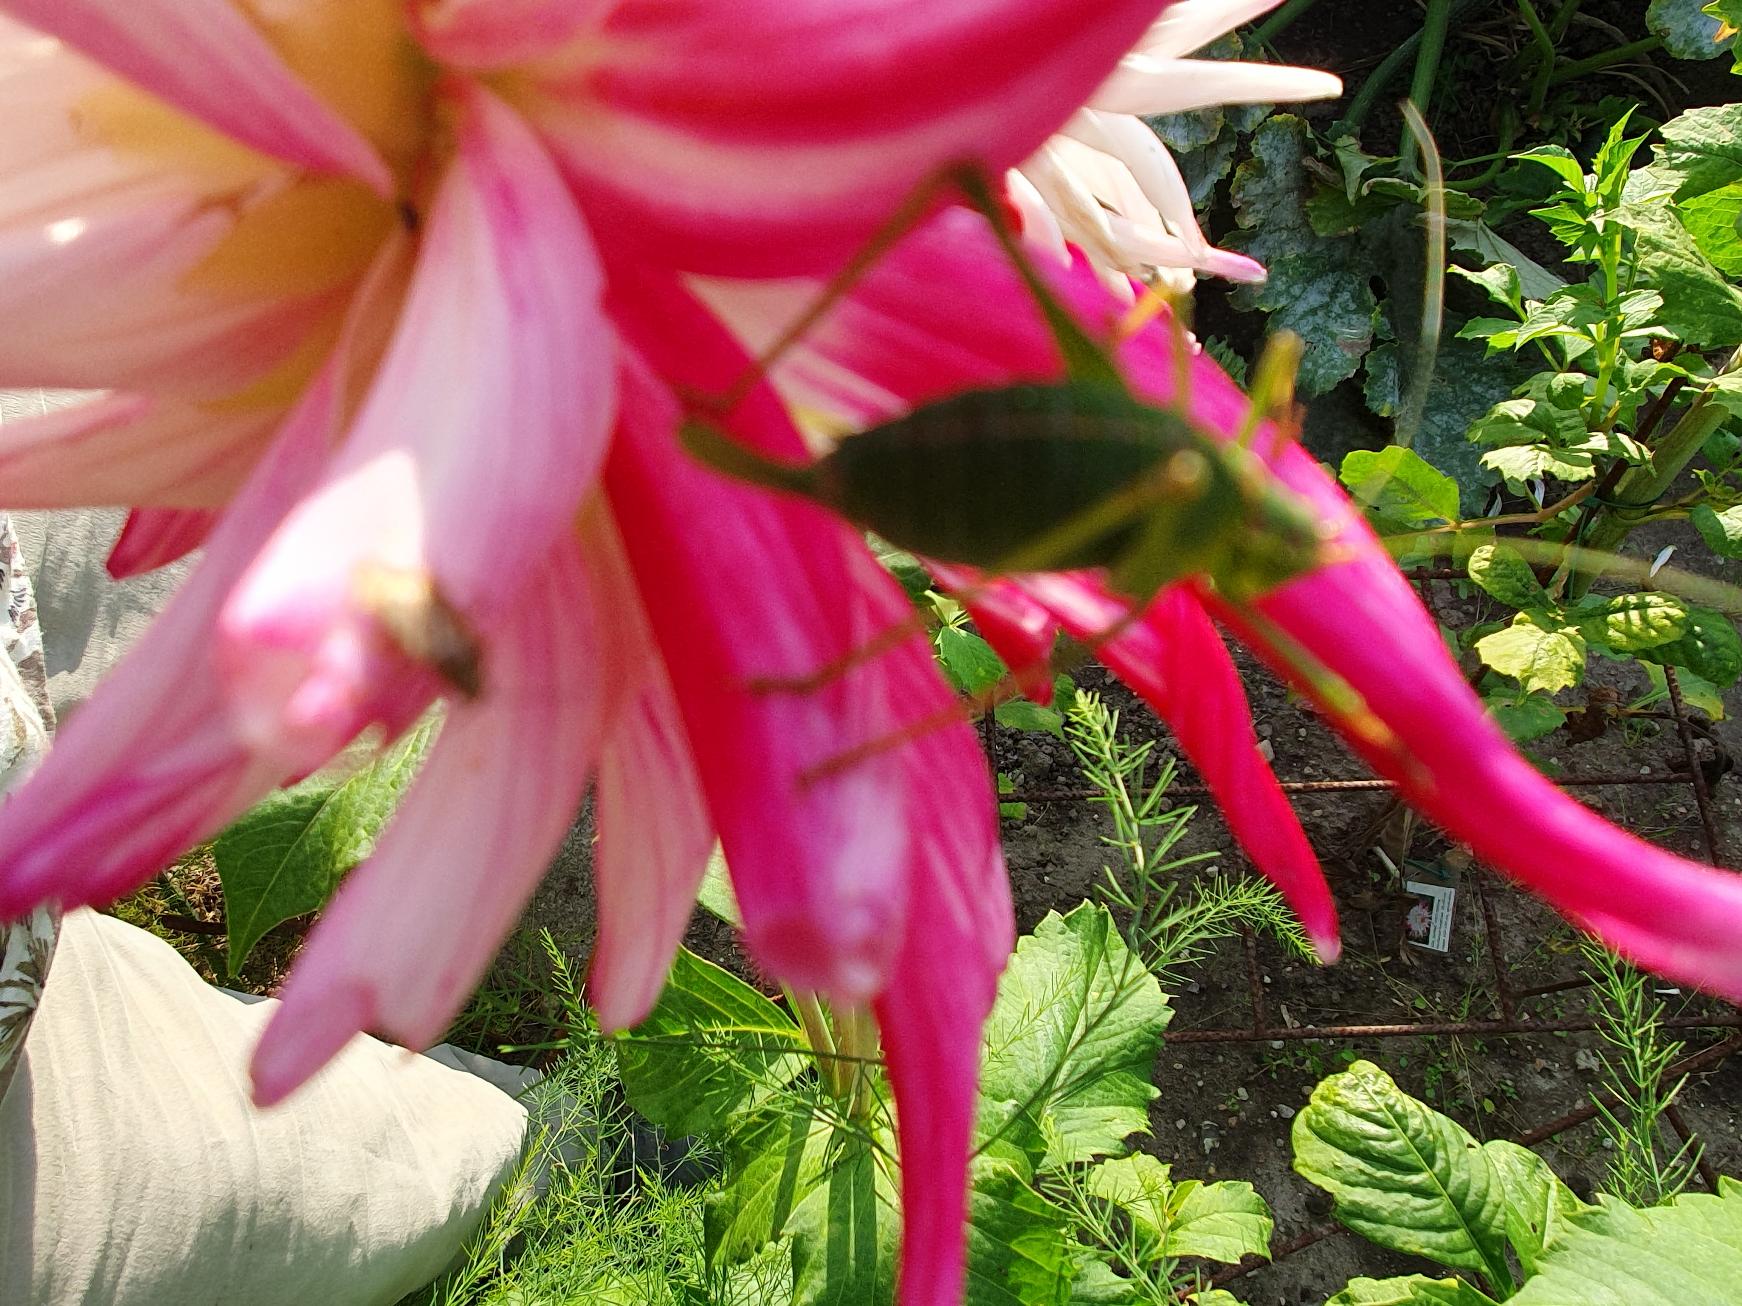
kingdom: Animalia
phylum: Arthropoda
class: Insecta
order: Orthoptera
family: Tettigoniidae
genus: Leptophyes
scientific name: Leptophyes punctatissima
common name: Krumknivgræshoppe
